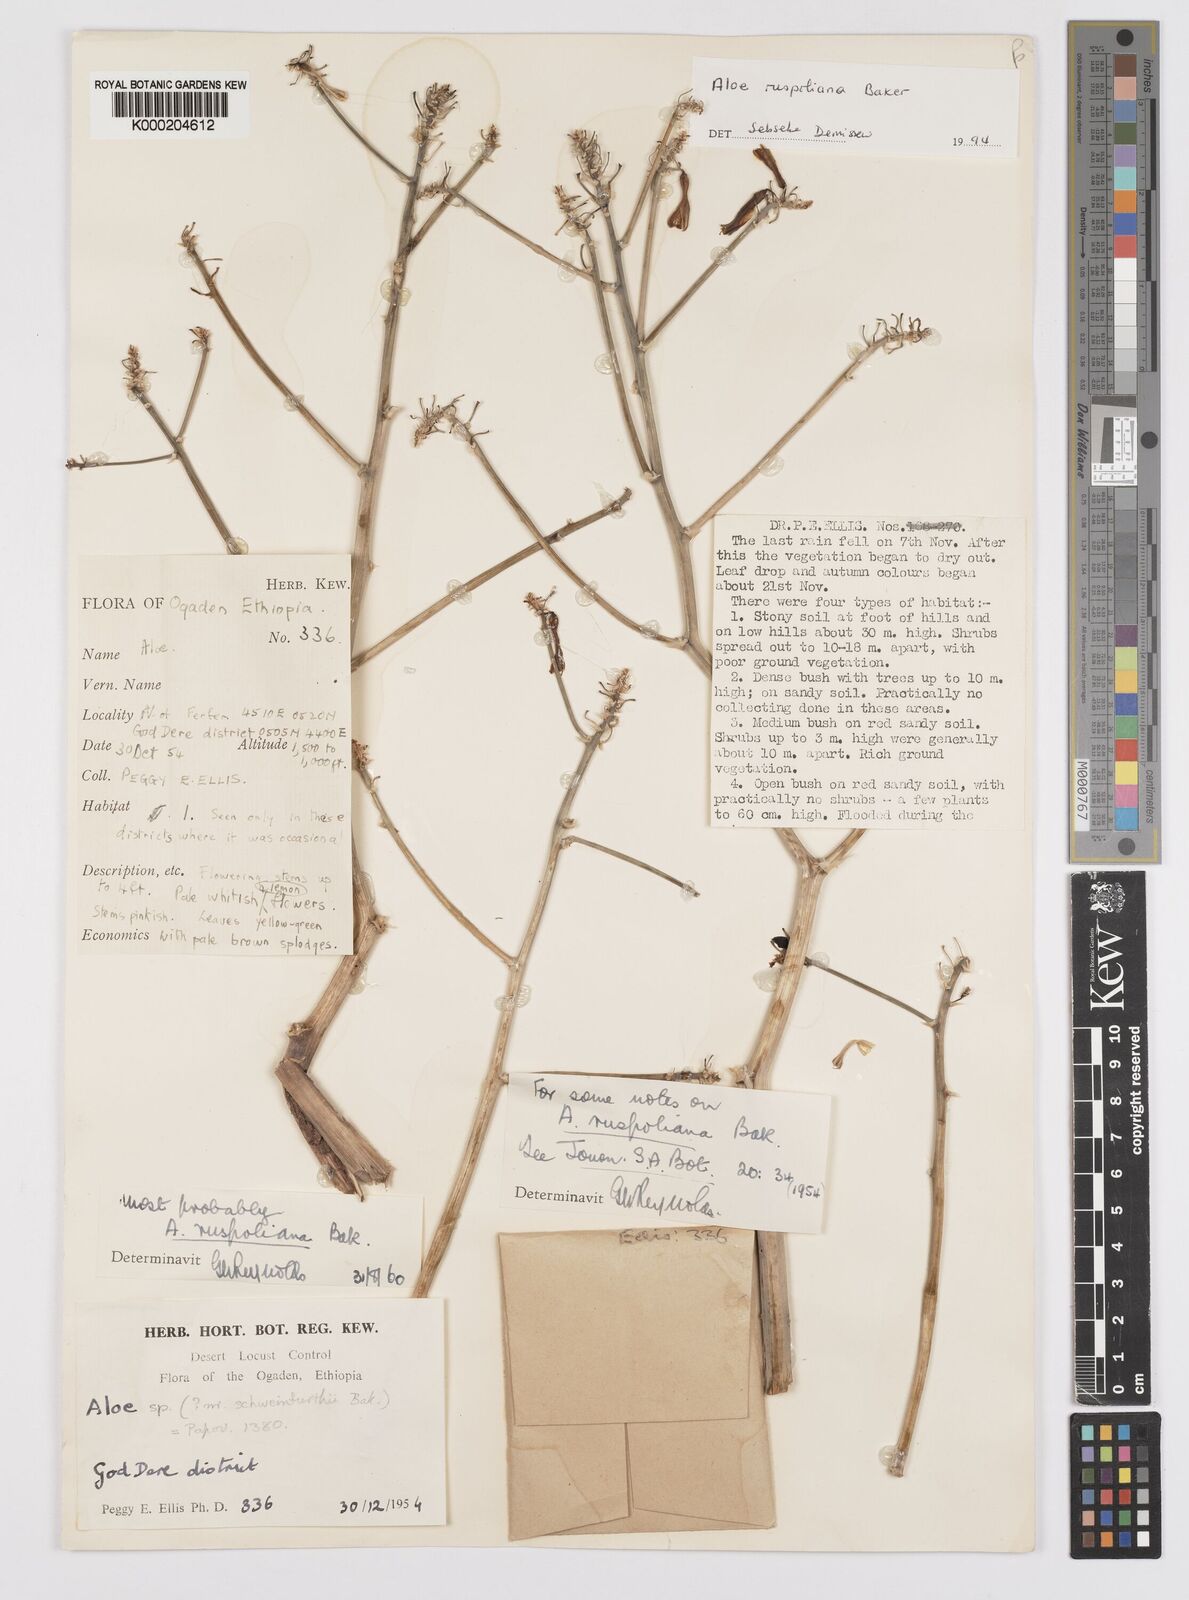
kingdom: Plantae
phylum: Tracheophyta
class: Liliopsida
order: Asparagales
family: Asphodelaceae
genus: Aloe
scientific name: Aloe ruspoliana
